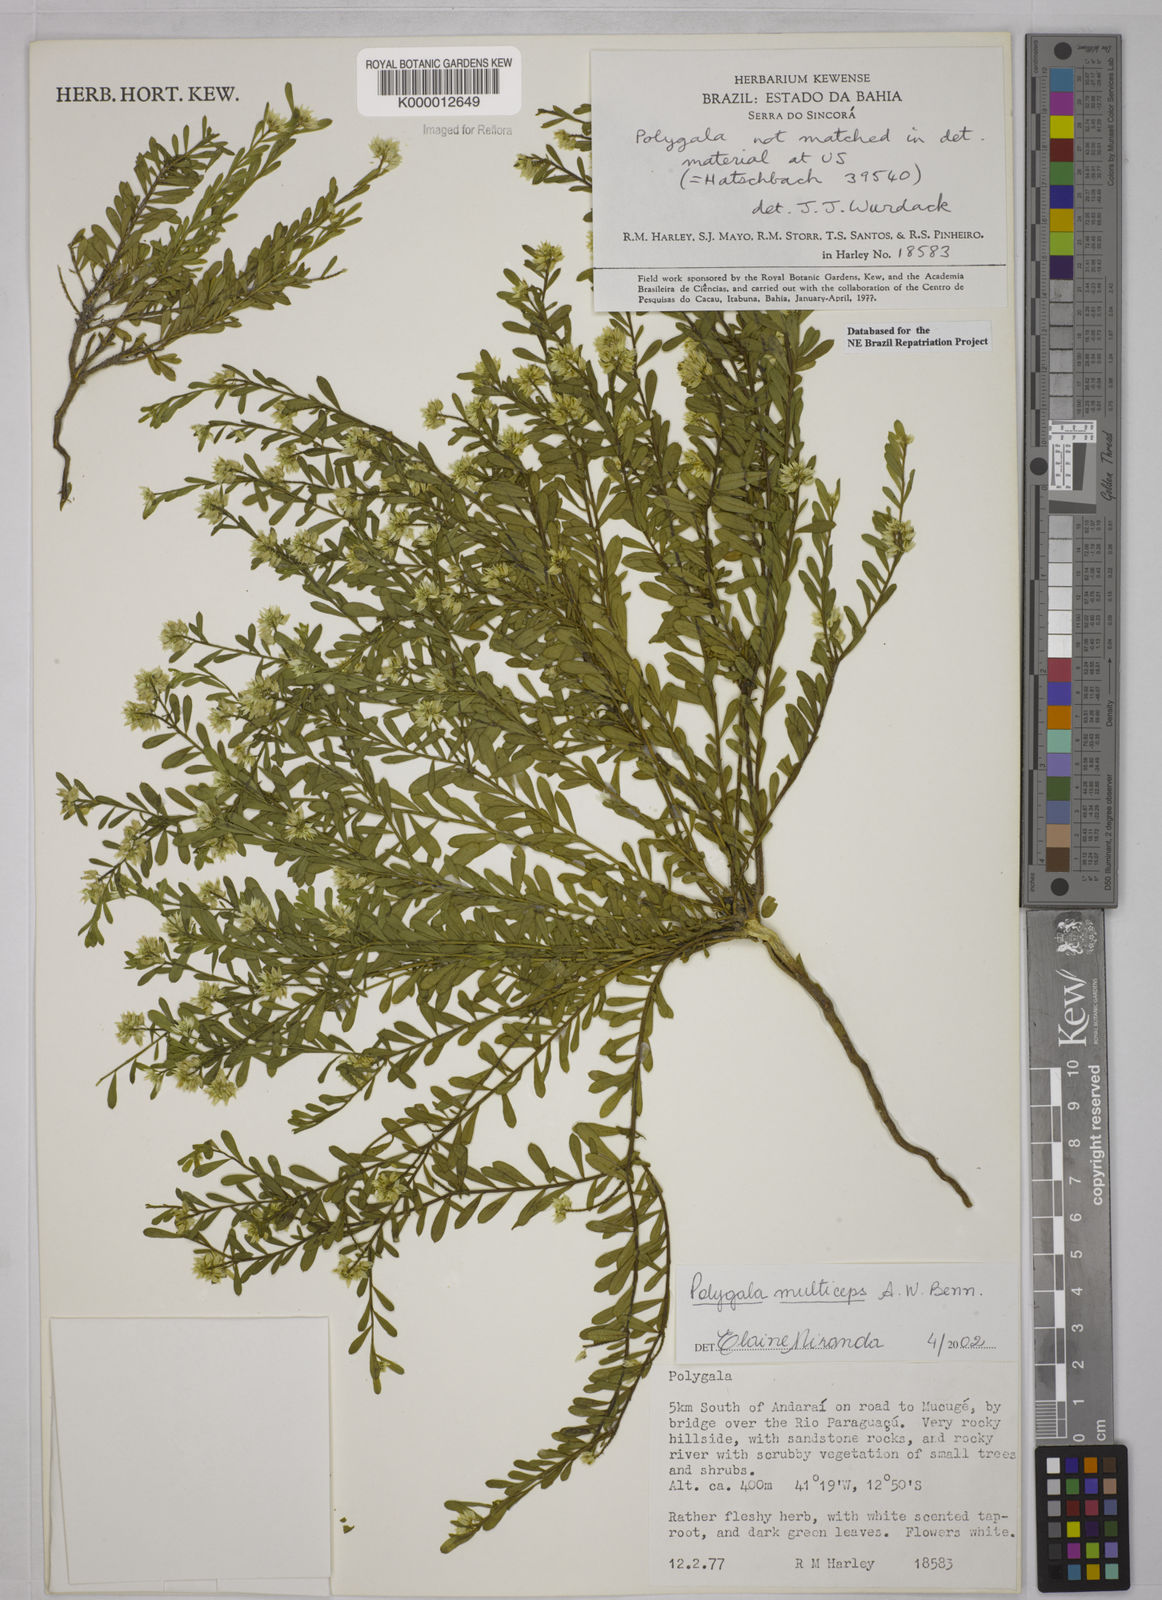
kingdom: Plantae
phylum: Tracheophyta
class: Magnoliopsida
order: Fabales
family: Polygalaceae
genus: Polygala
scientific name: Polygala
